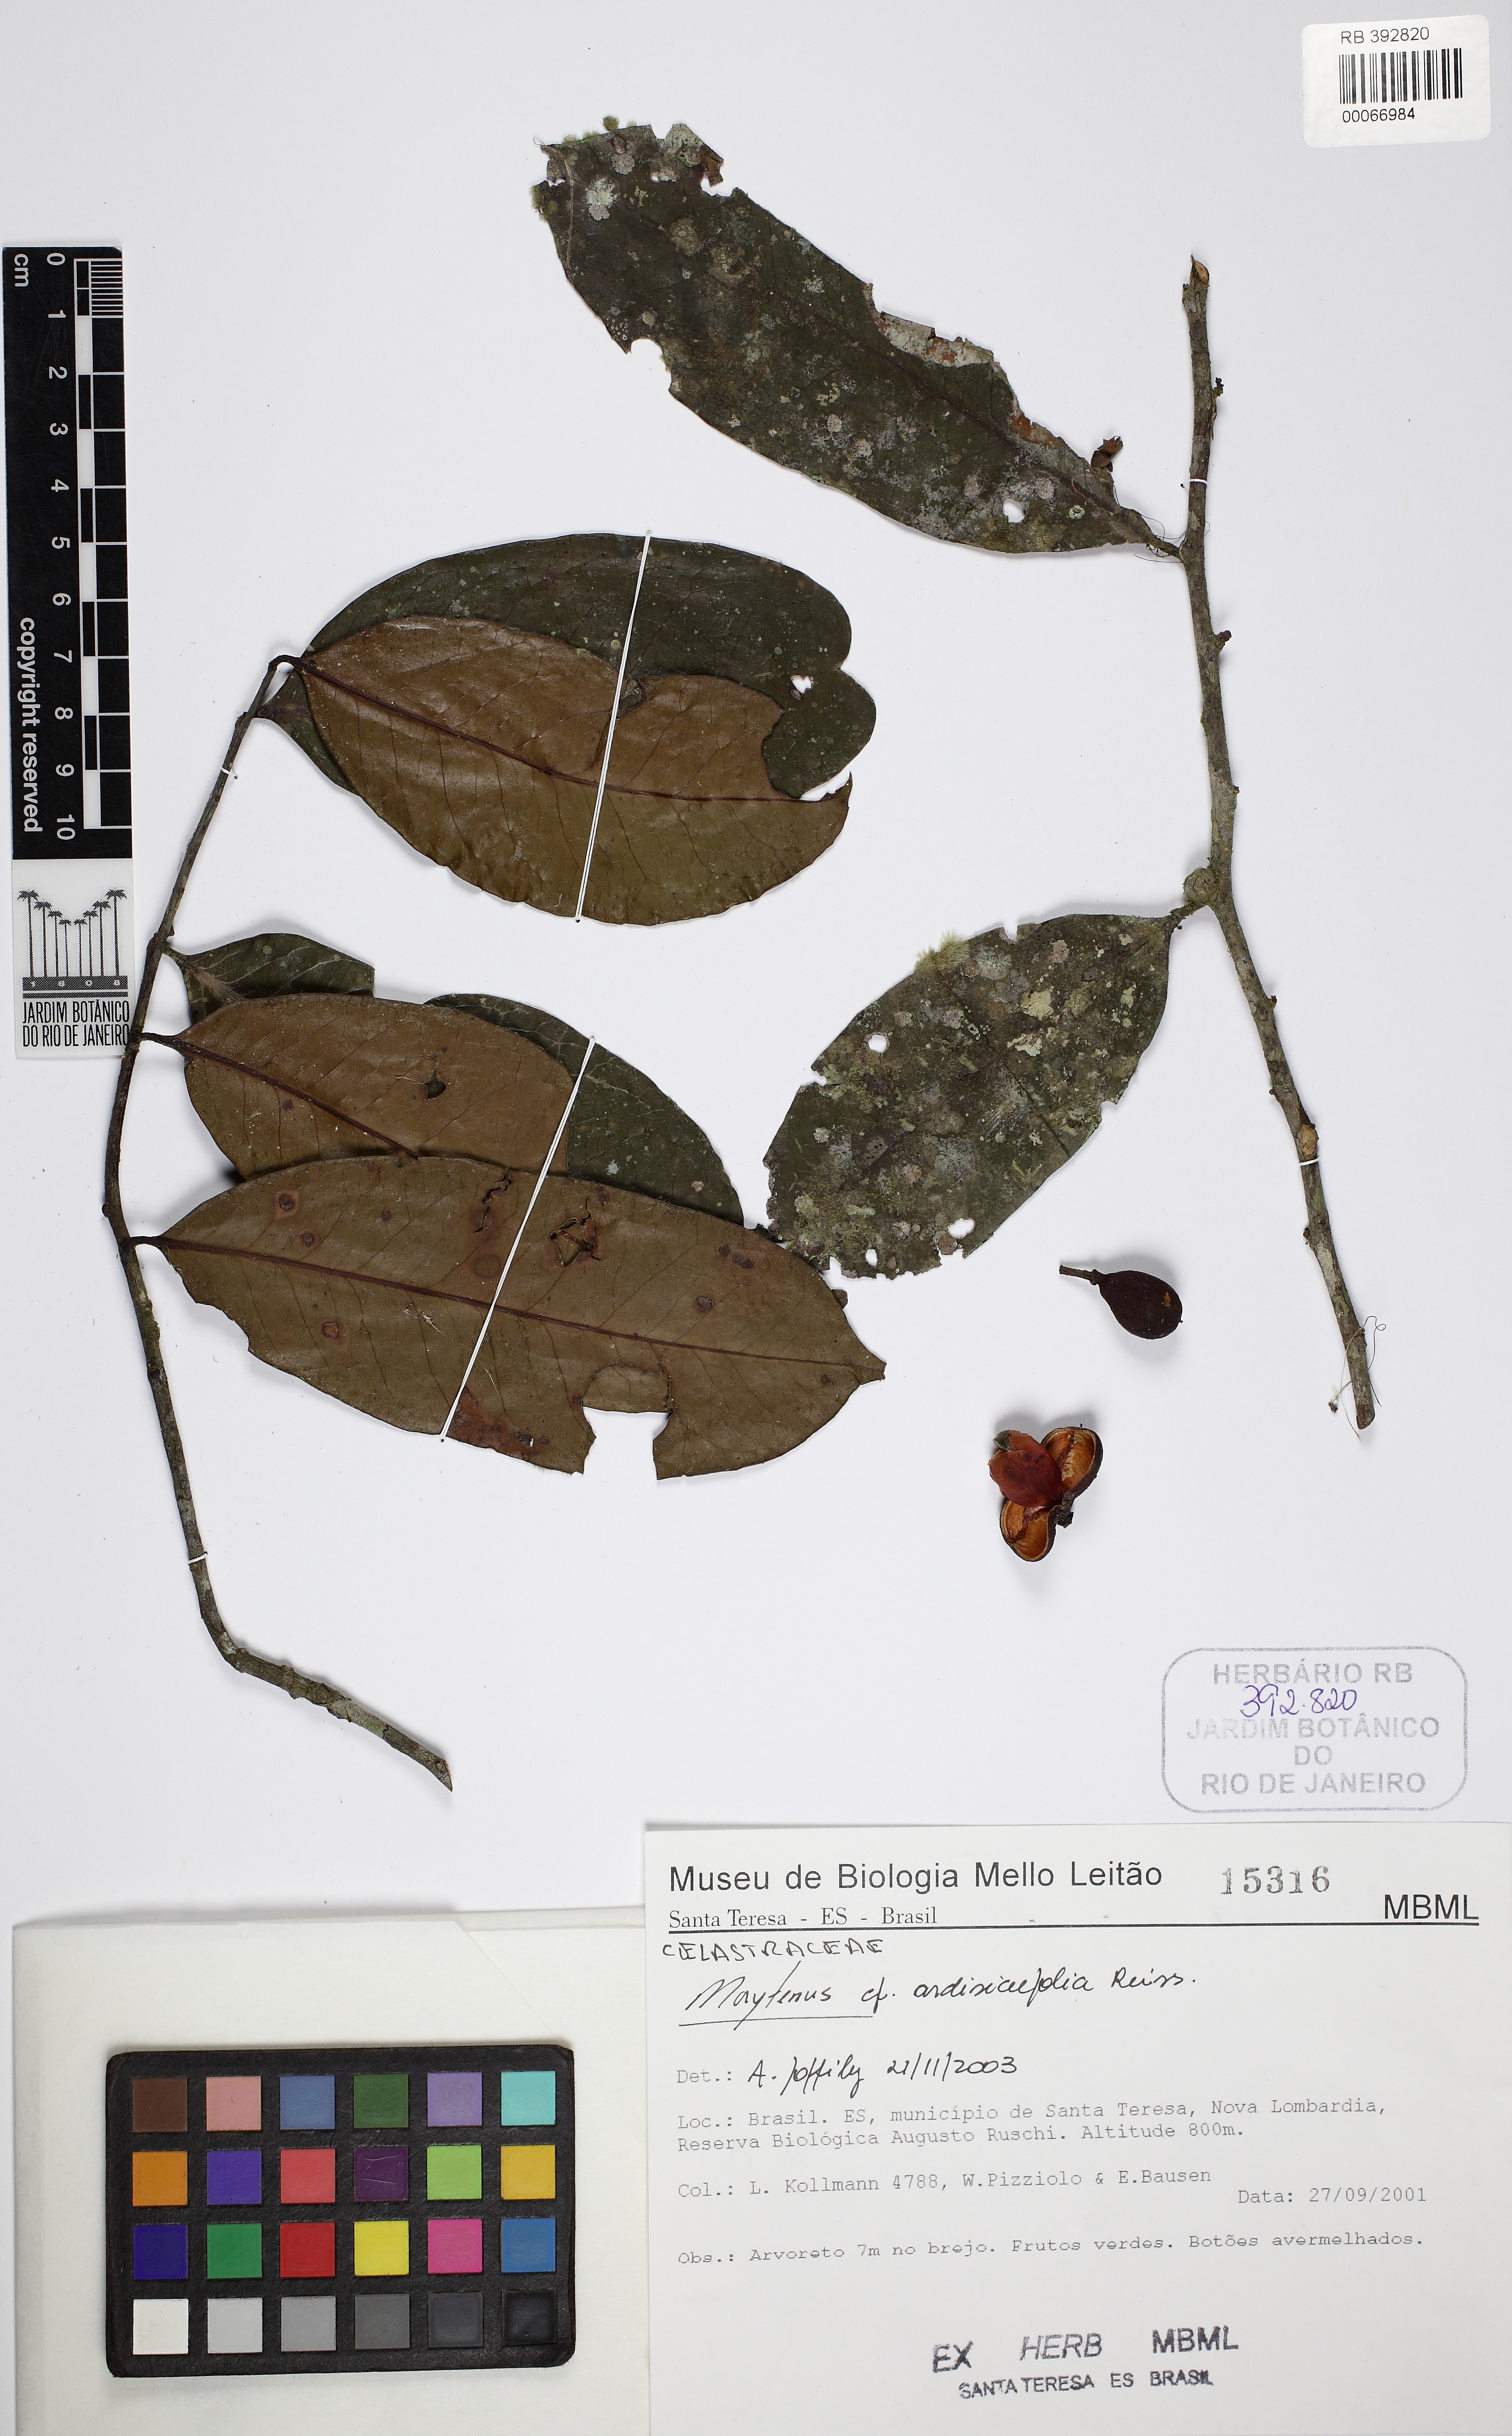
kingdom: Plantae
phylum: Tracheophyta
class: Magnoliopsida
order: Celastrales
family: Celastraceae
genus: Monteverdia
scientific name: Monteverdia ardisiifolia
